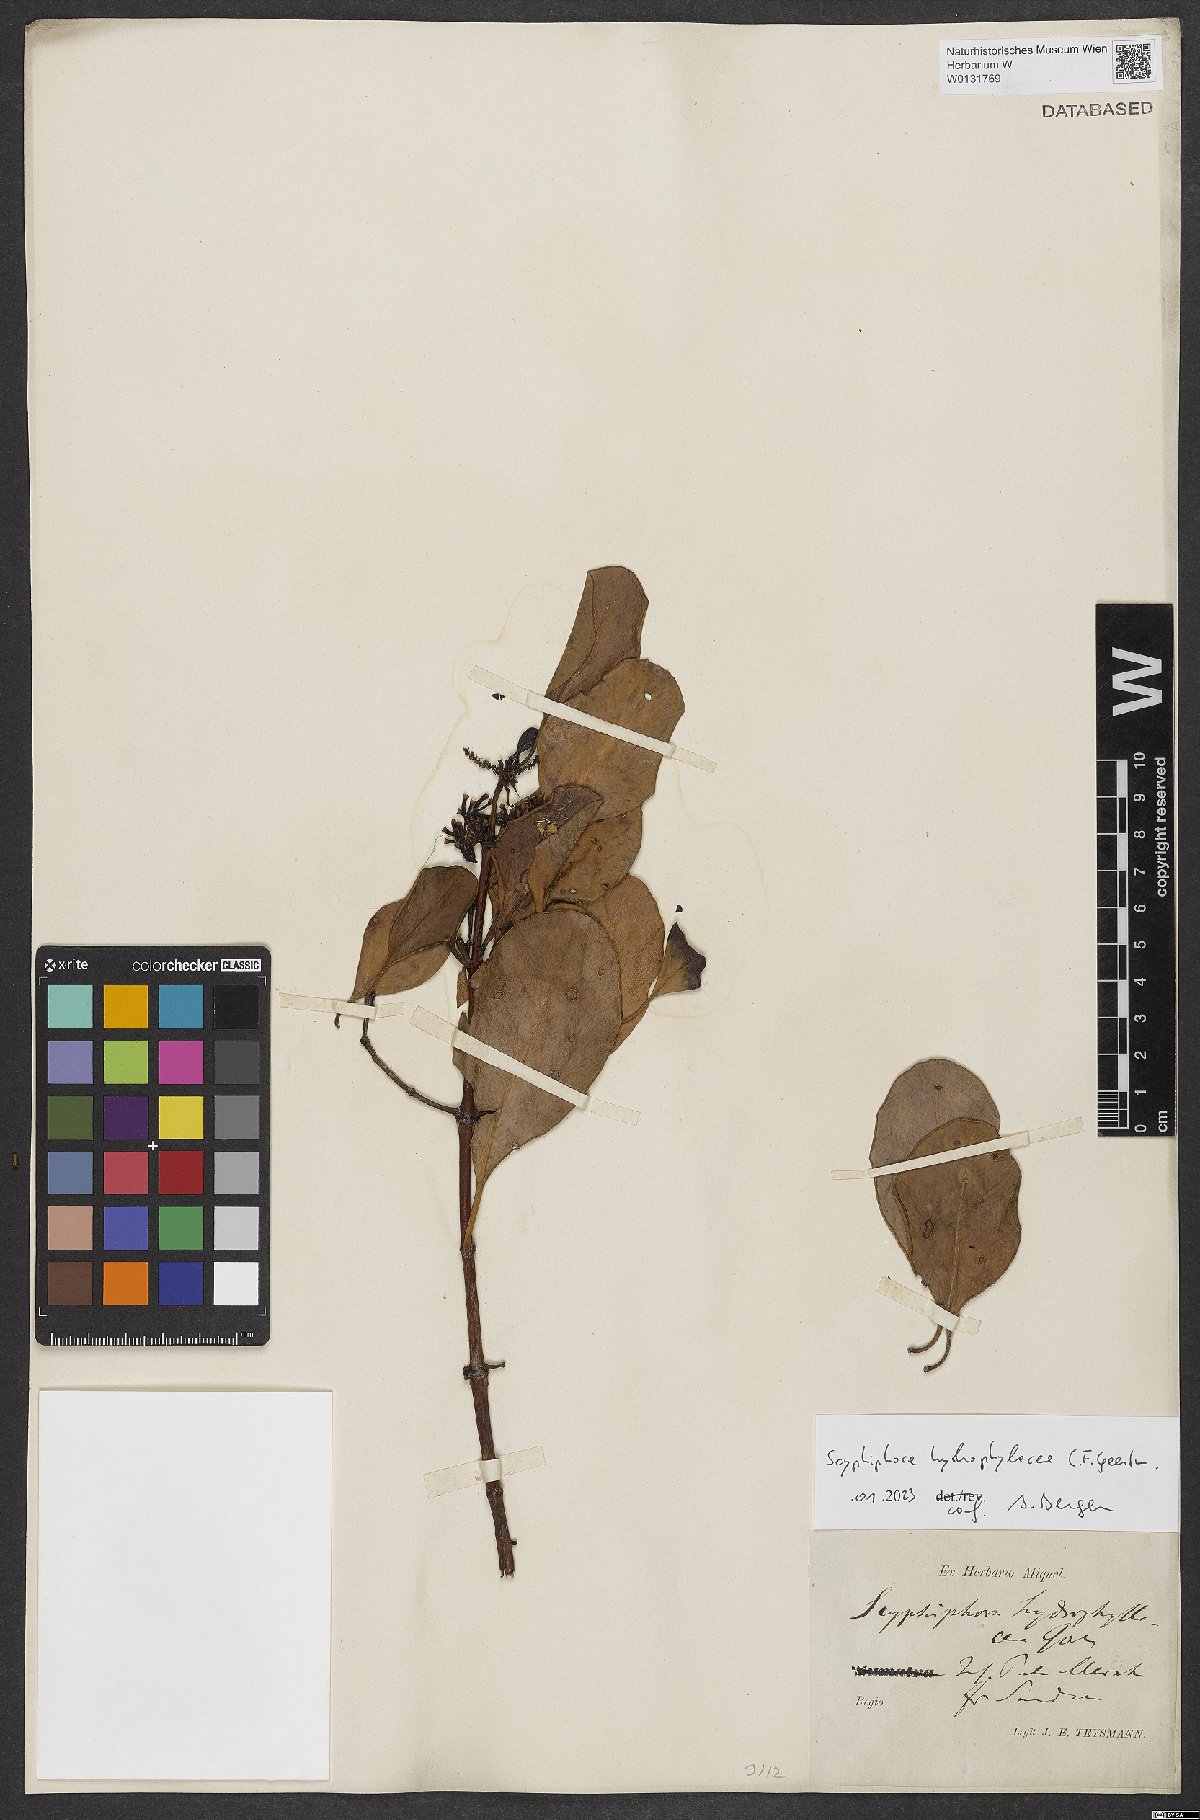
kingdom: Plantae
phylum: Tracheophyta
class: Magnoliopsida
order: Gentianales
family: Rubiaceae
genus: Scyphiphora
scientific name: Scyphiphora hydrophylacea
